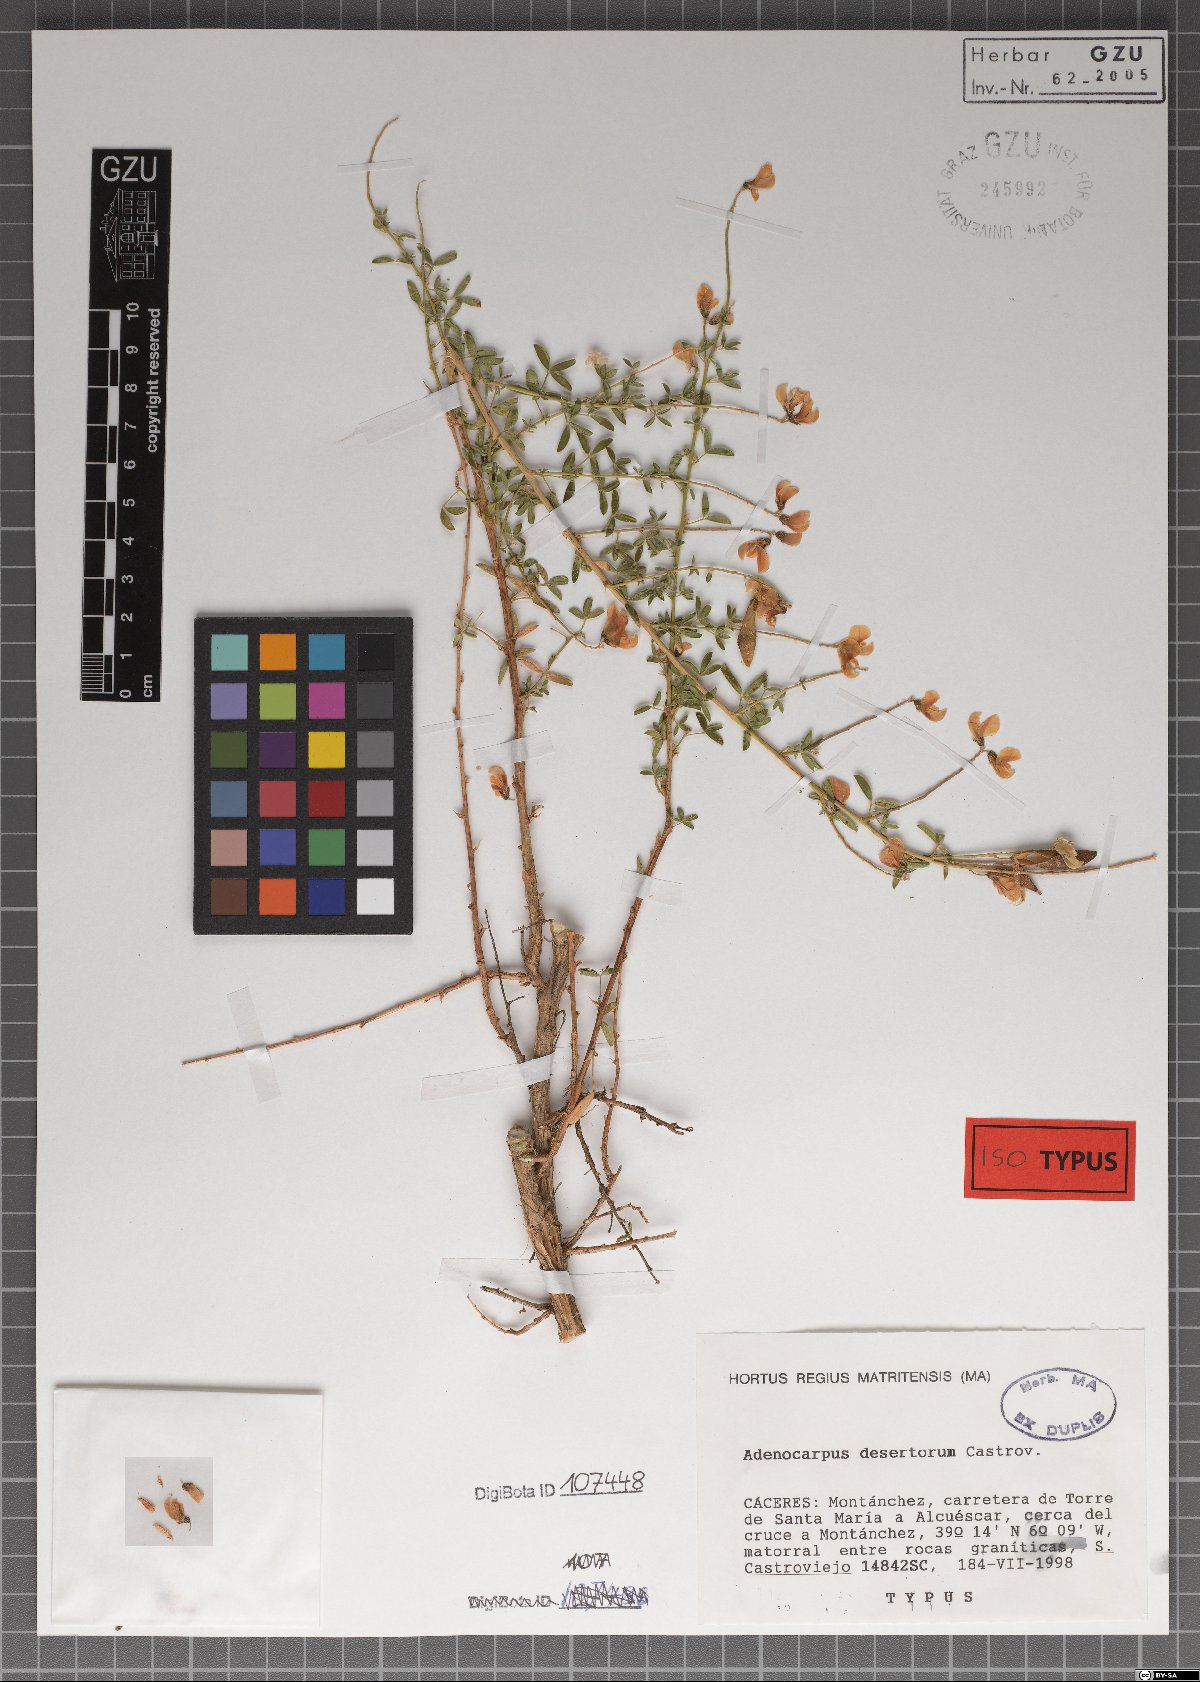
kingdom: Plantae
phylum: Tracheophyta
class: Magnoliopsida
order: Fabales
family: Fabaceae
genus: Adenocarpus
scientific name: Adenocarpus desertorum
